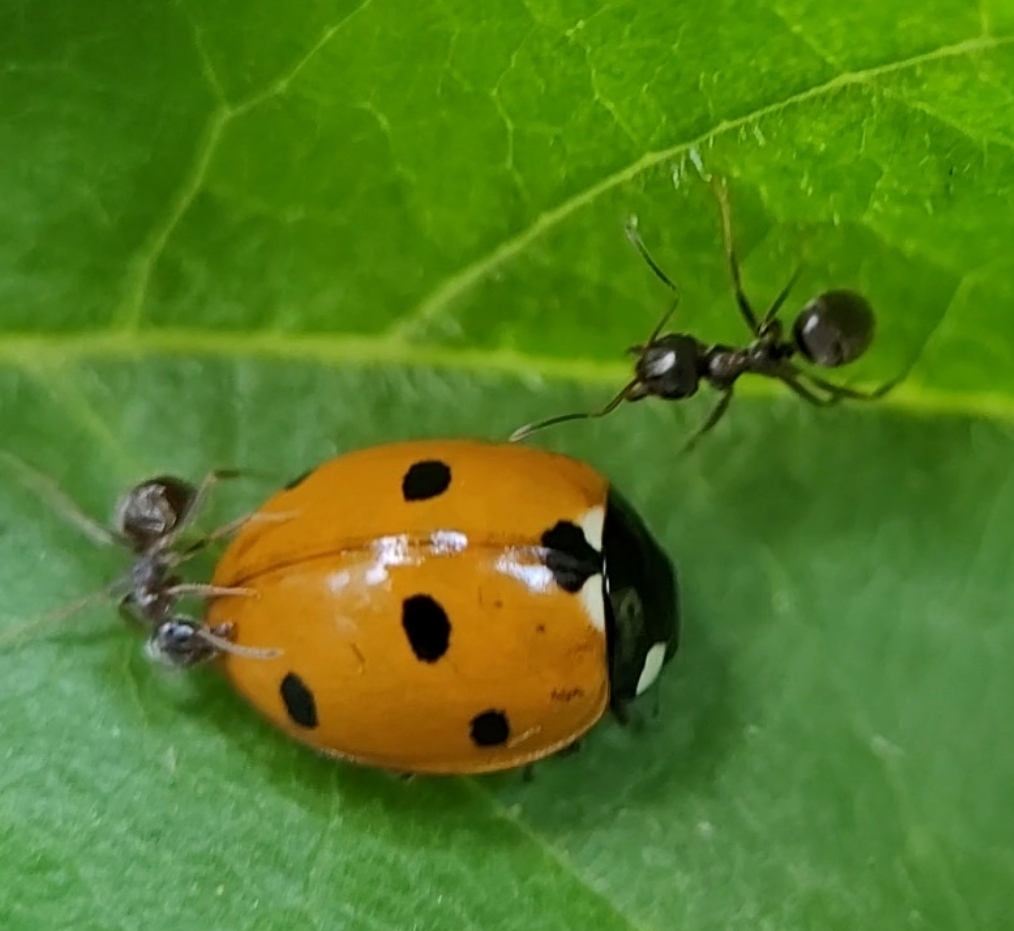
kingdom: Animalia
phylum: Arthropoda
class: Insecta
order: Coleoptera
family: Coccinellidae
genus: Coccinella
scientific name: Coccinella septempunctata
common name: Syvplettet mariehøne
